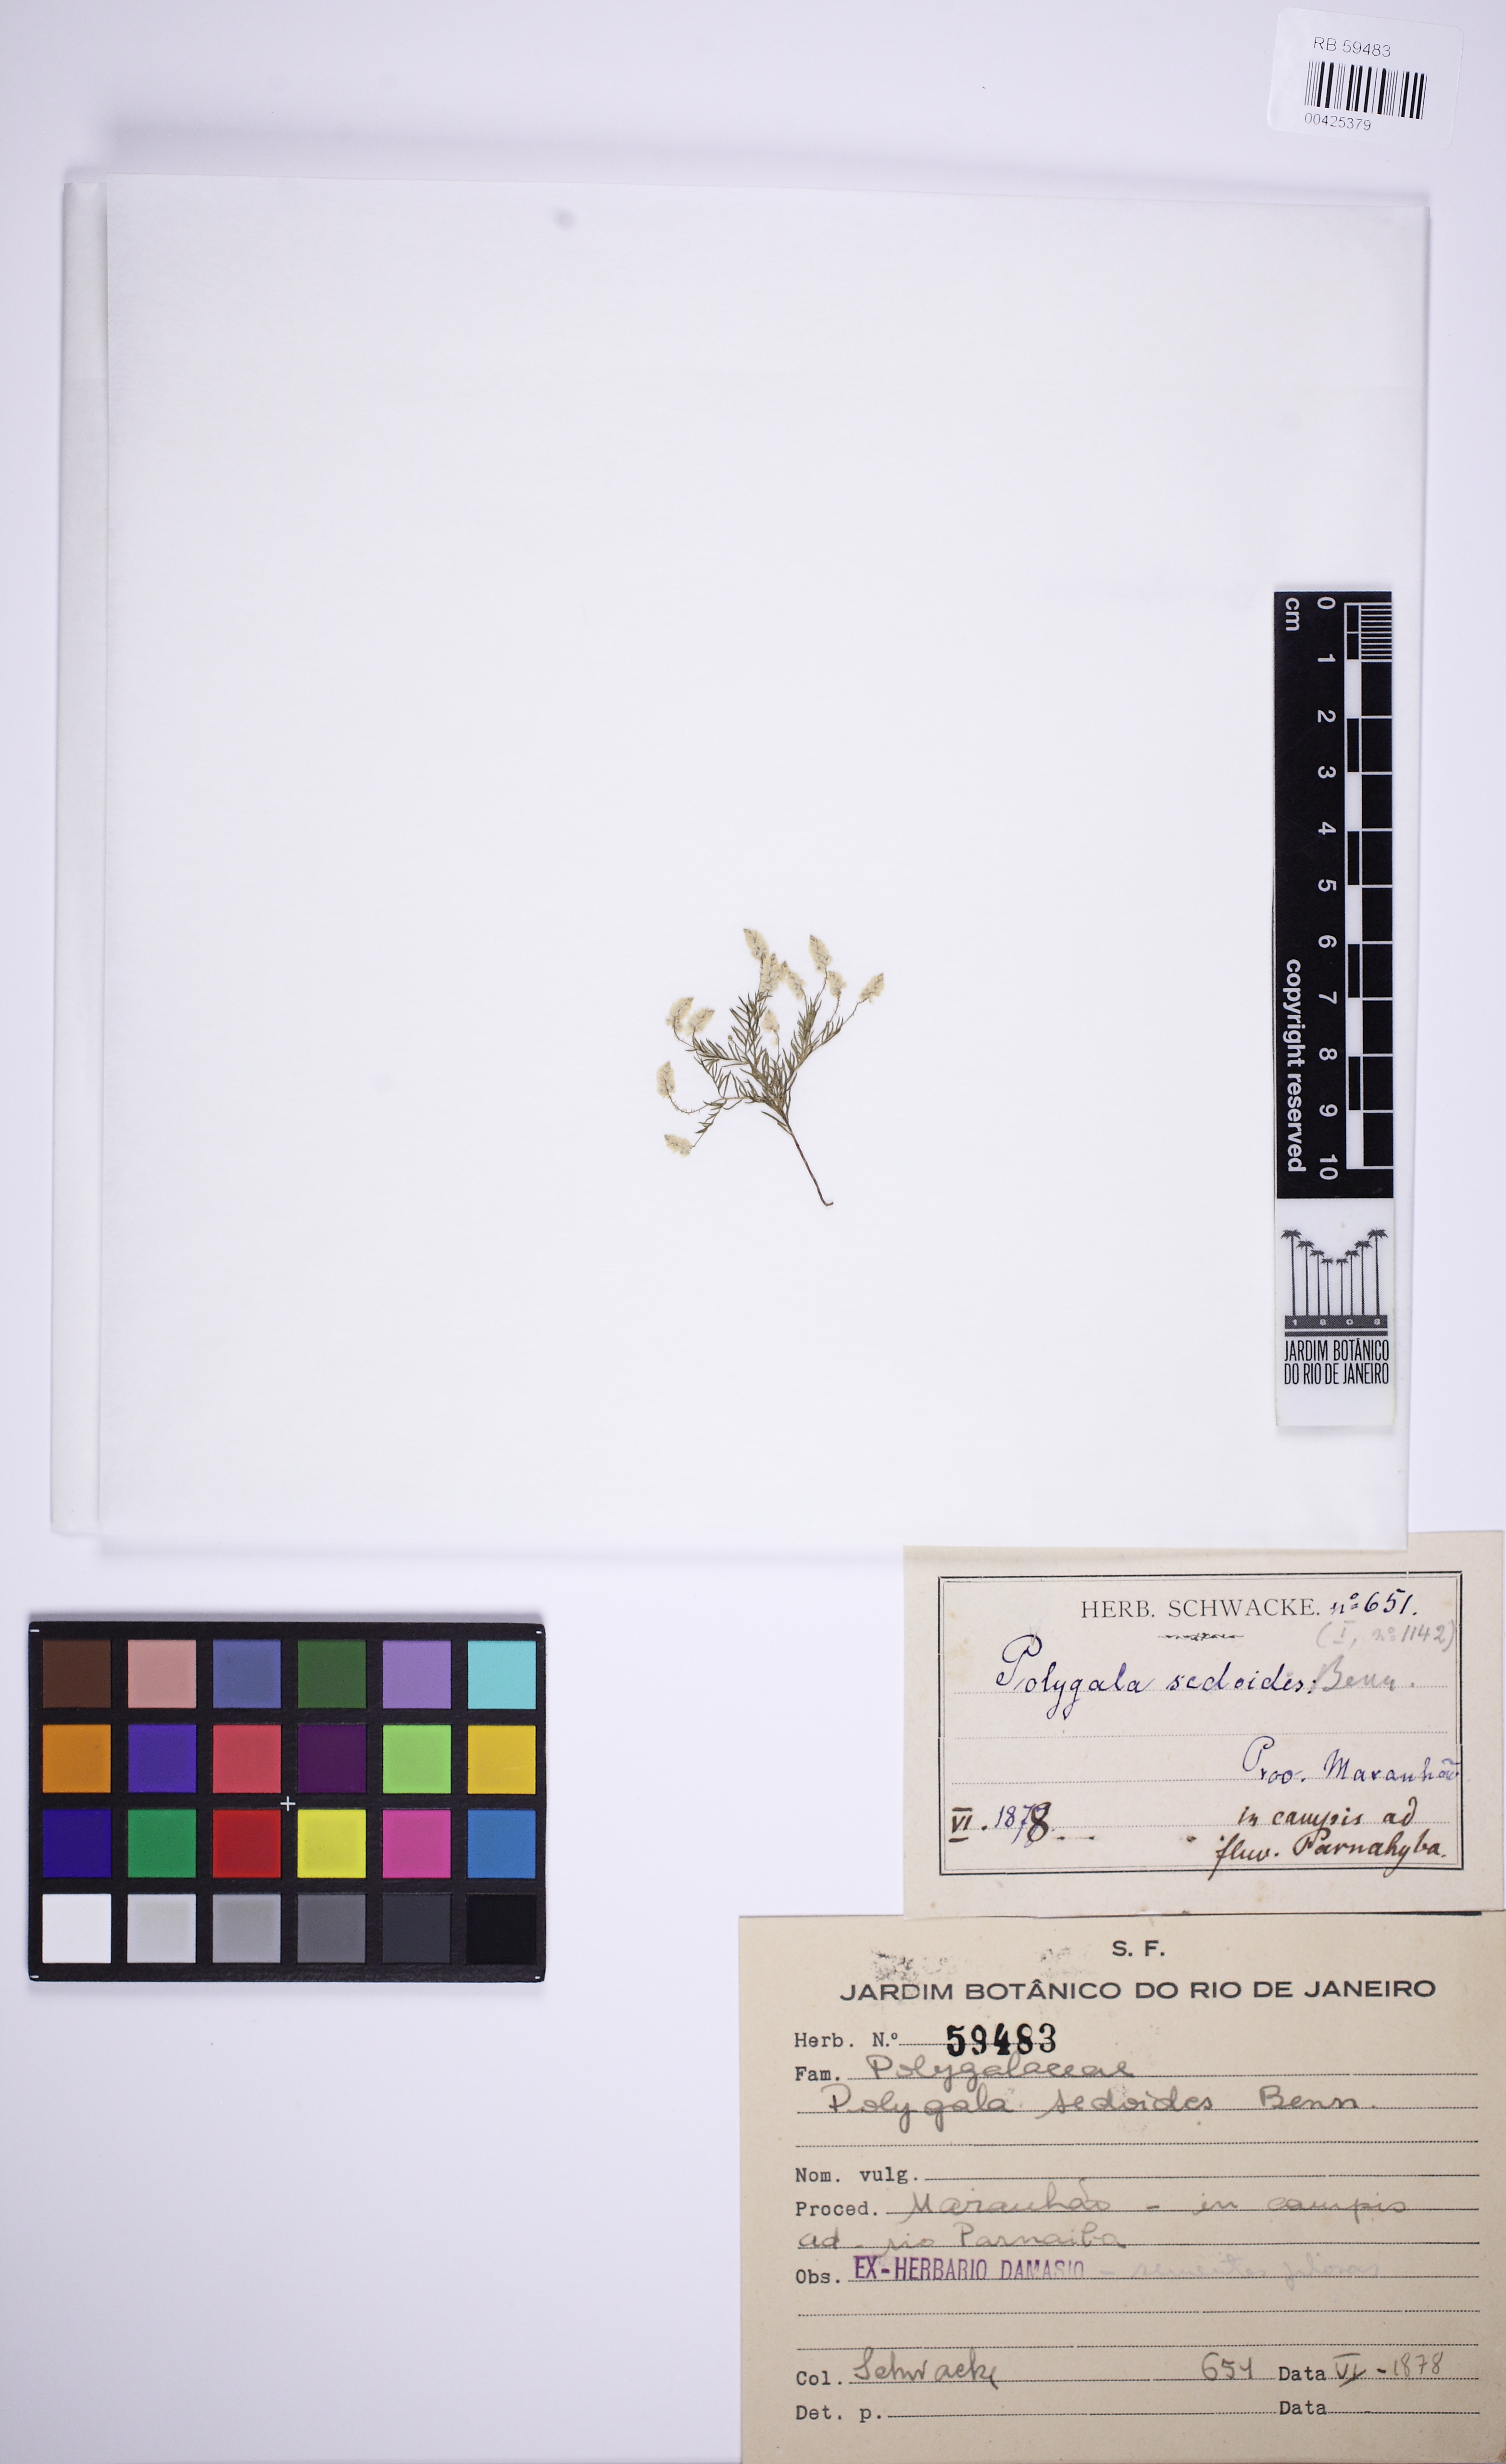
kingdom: Plantae
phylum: Tracheophyta
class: Magnoliopsida
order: Fabales
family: Polygalaceae
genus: Polygala
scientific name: Polygala sedoides
